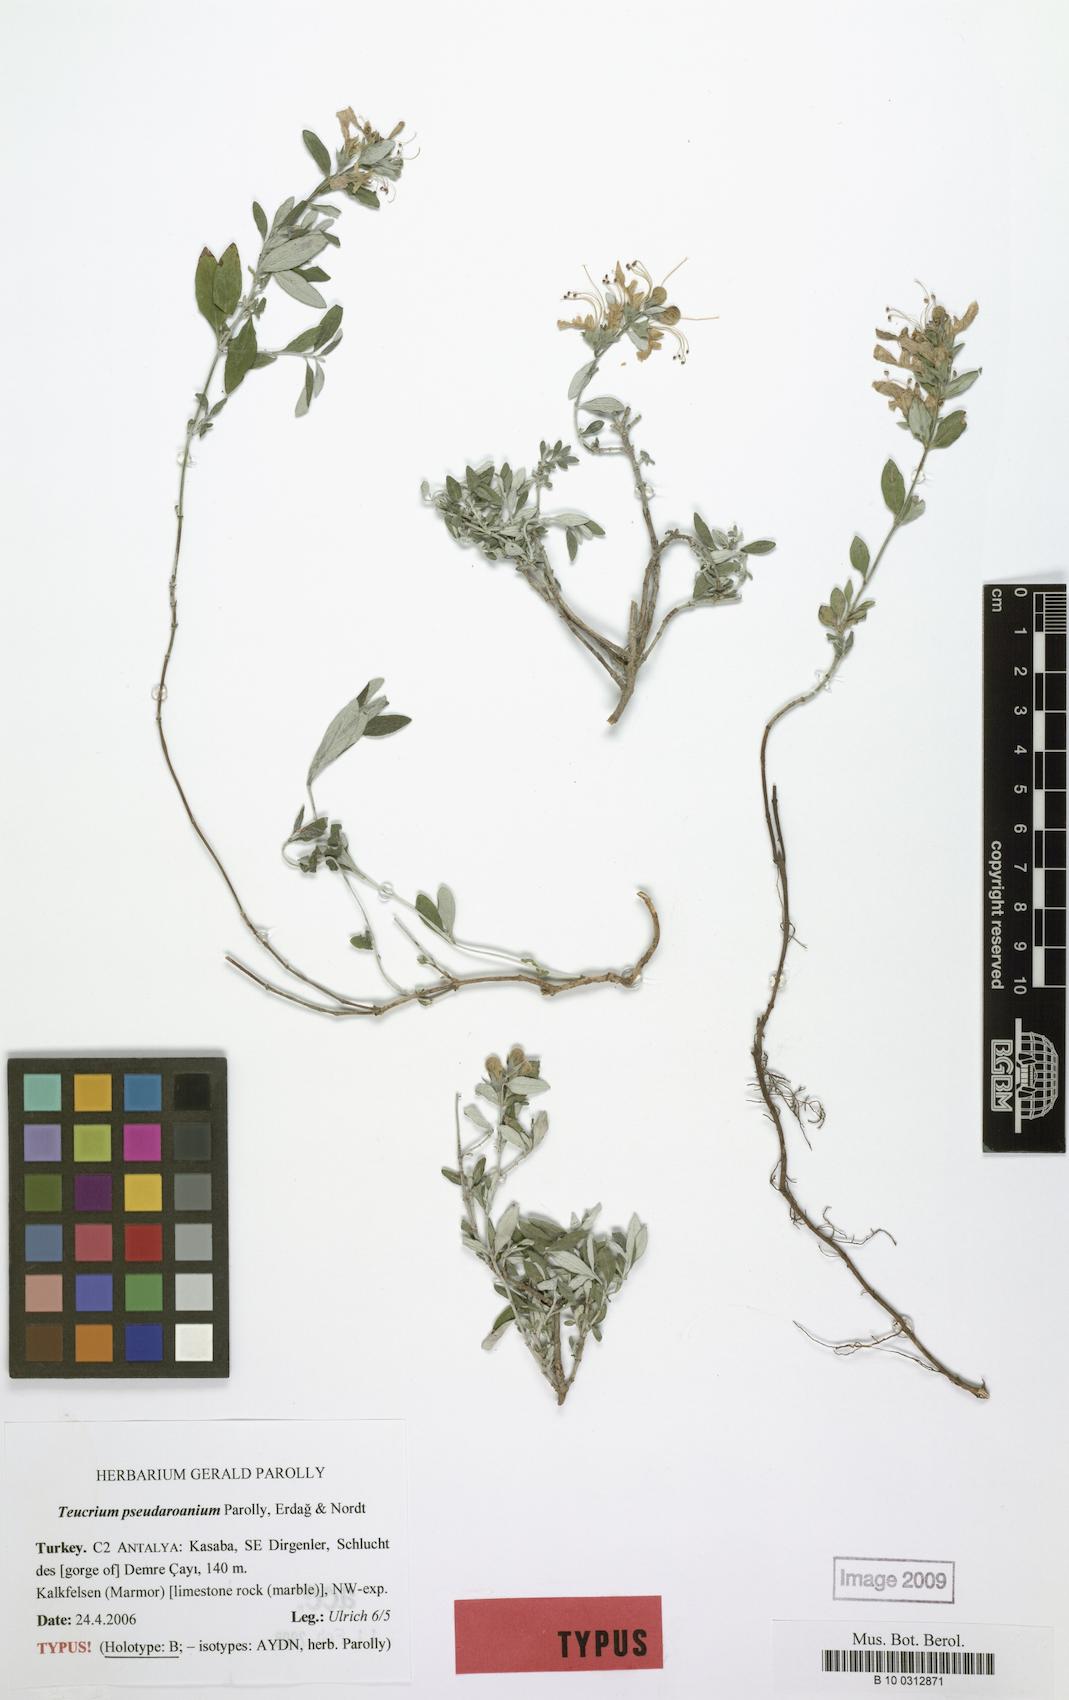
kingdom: Plantae
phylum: Tracheophyta
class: Magnoliopsida
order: Lamiales
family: Lamiaceae
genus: Teucrium
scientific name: Teucrium pseudaroanium
